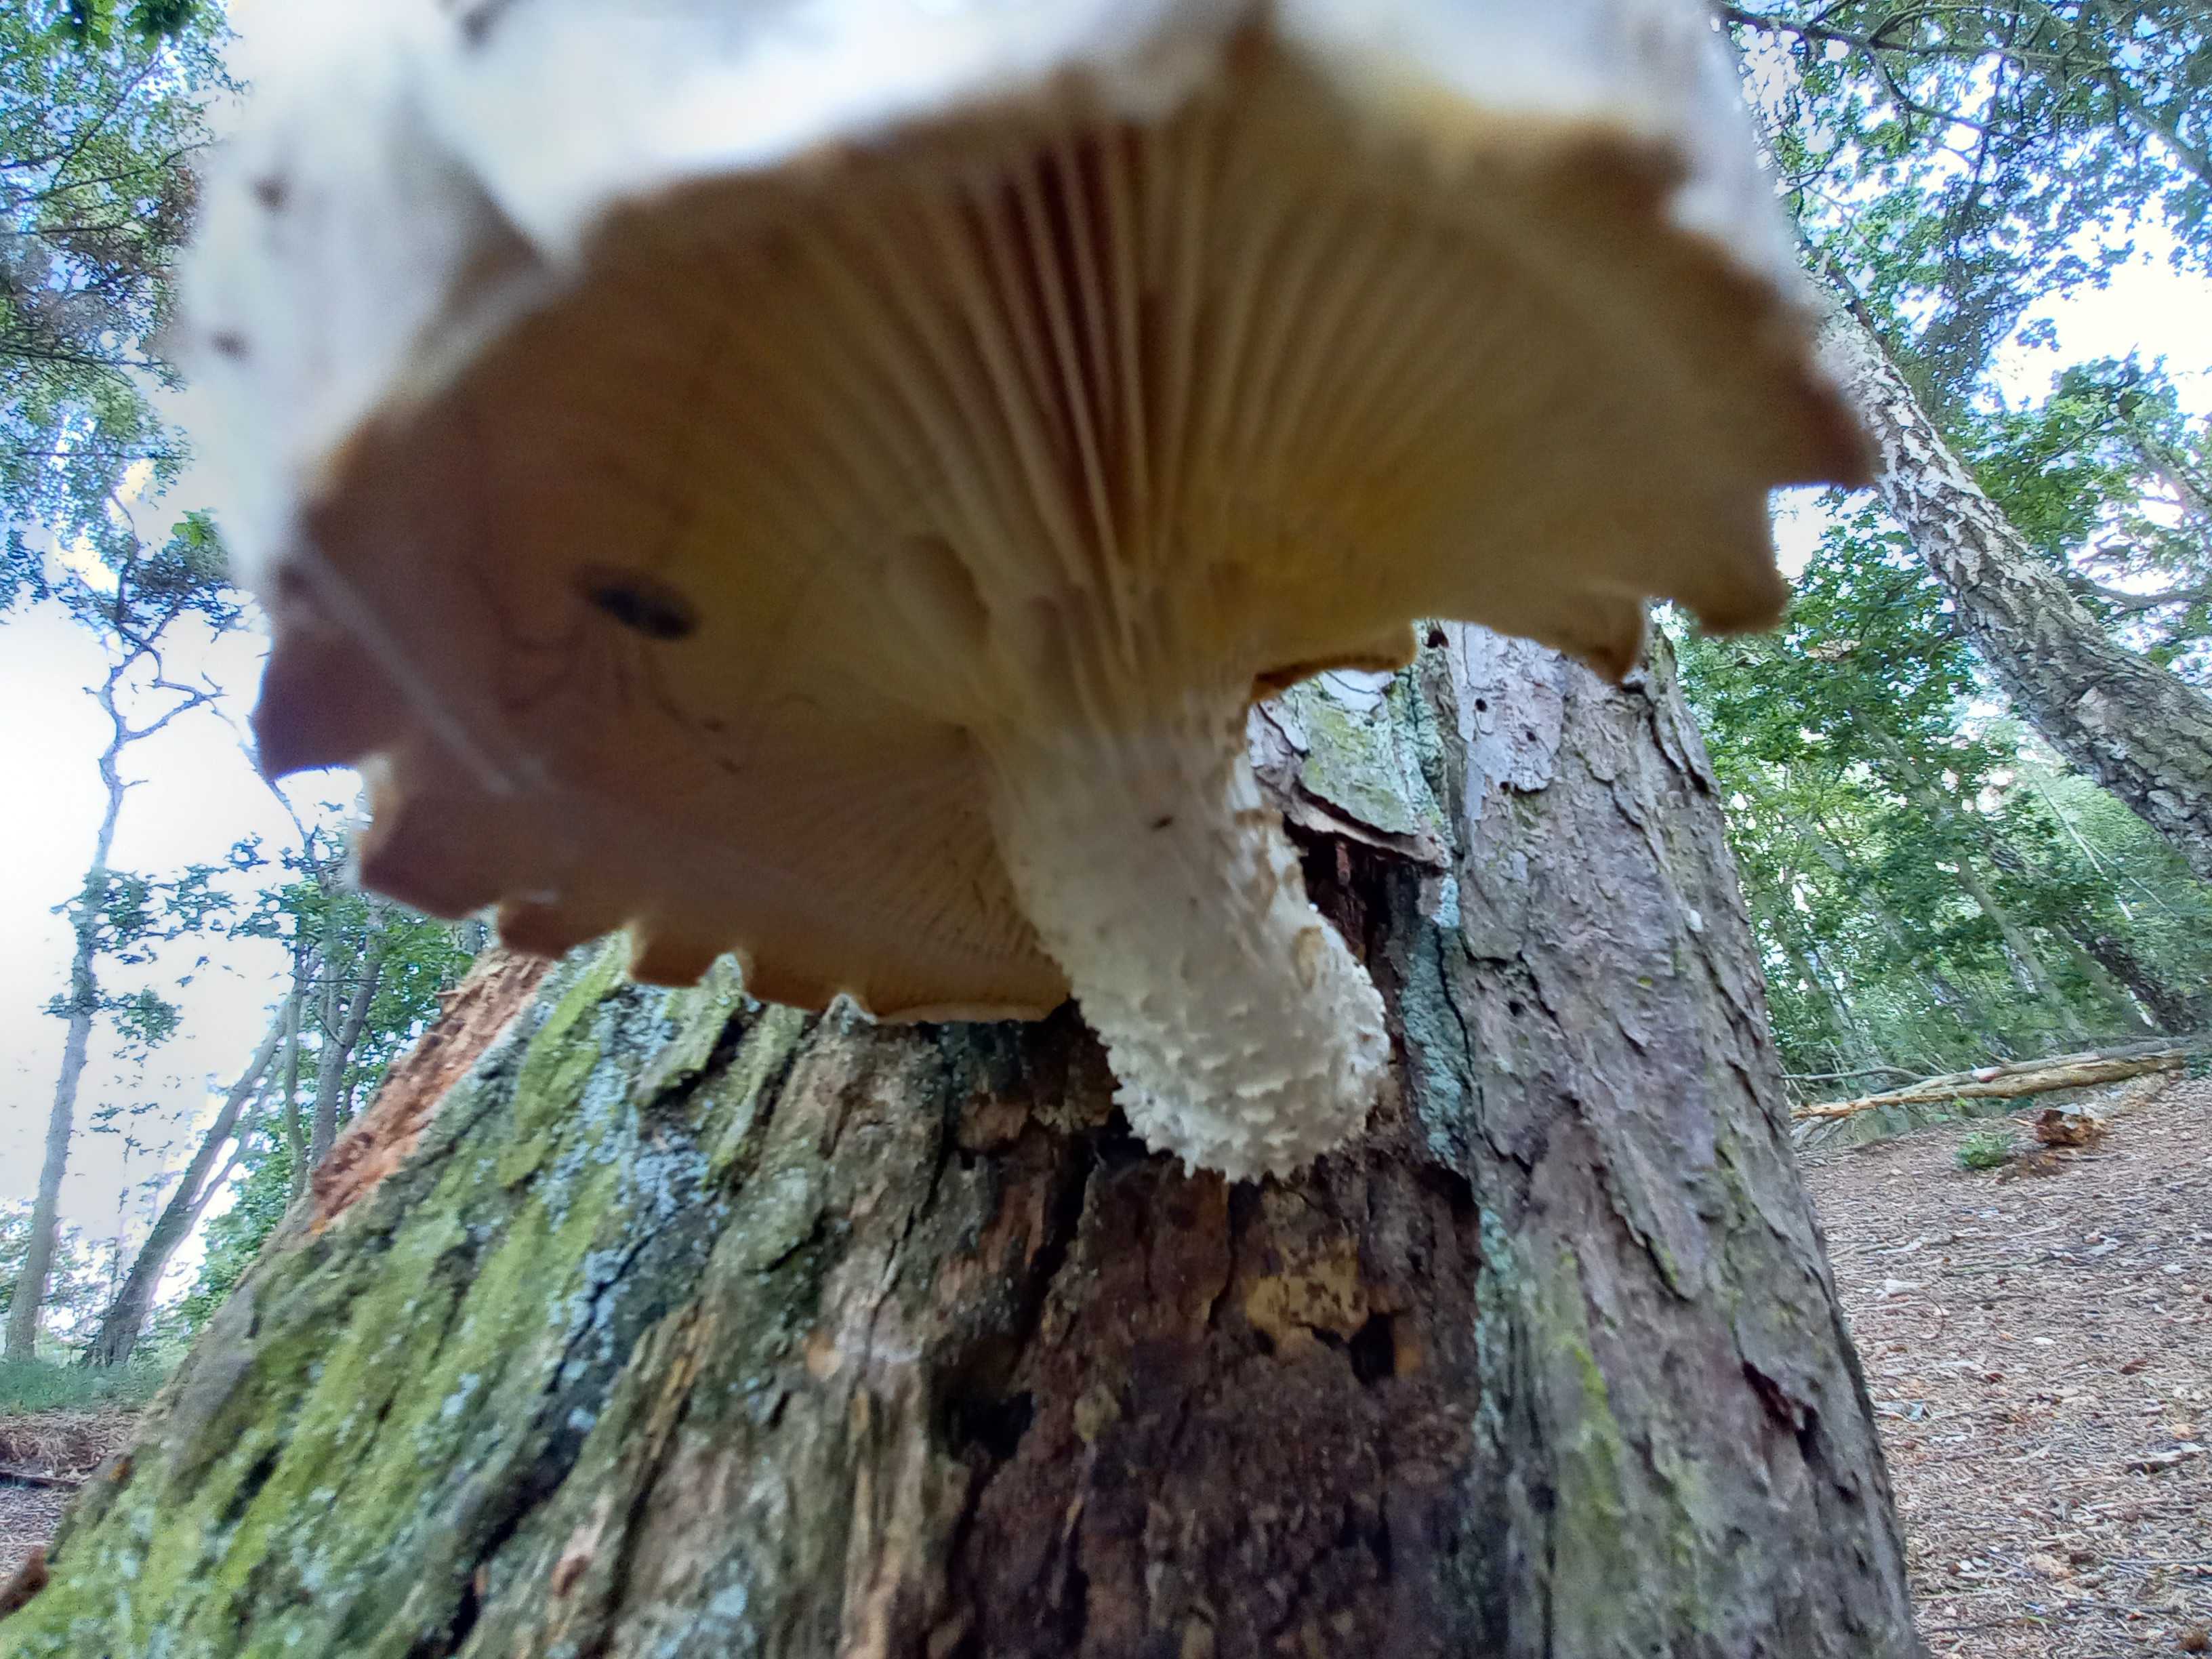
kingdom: Fungi
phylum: Basidiomycota
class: Agaricomycetes
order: Gloeophyllales
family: Gloeophyllaceae
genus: Neolentinus
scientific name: Neolentinus lepideus
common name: skællet sejhat
